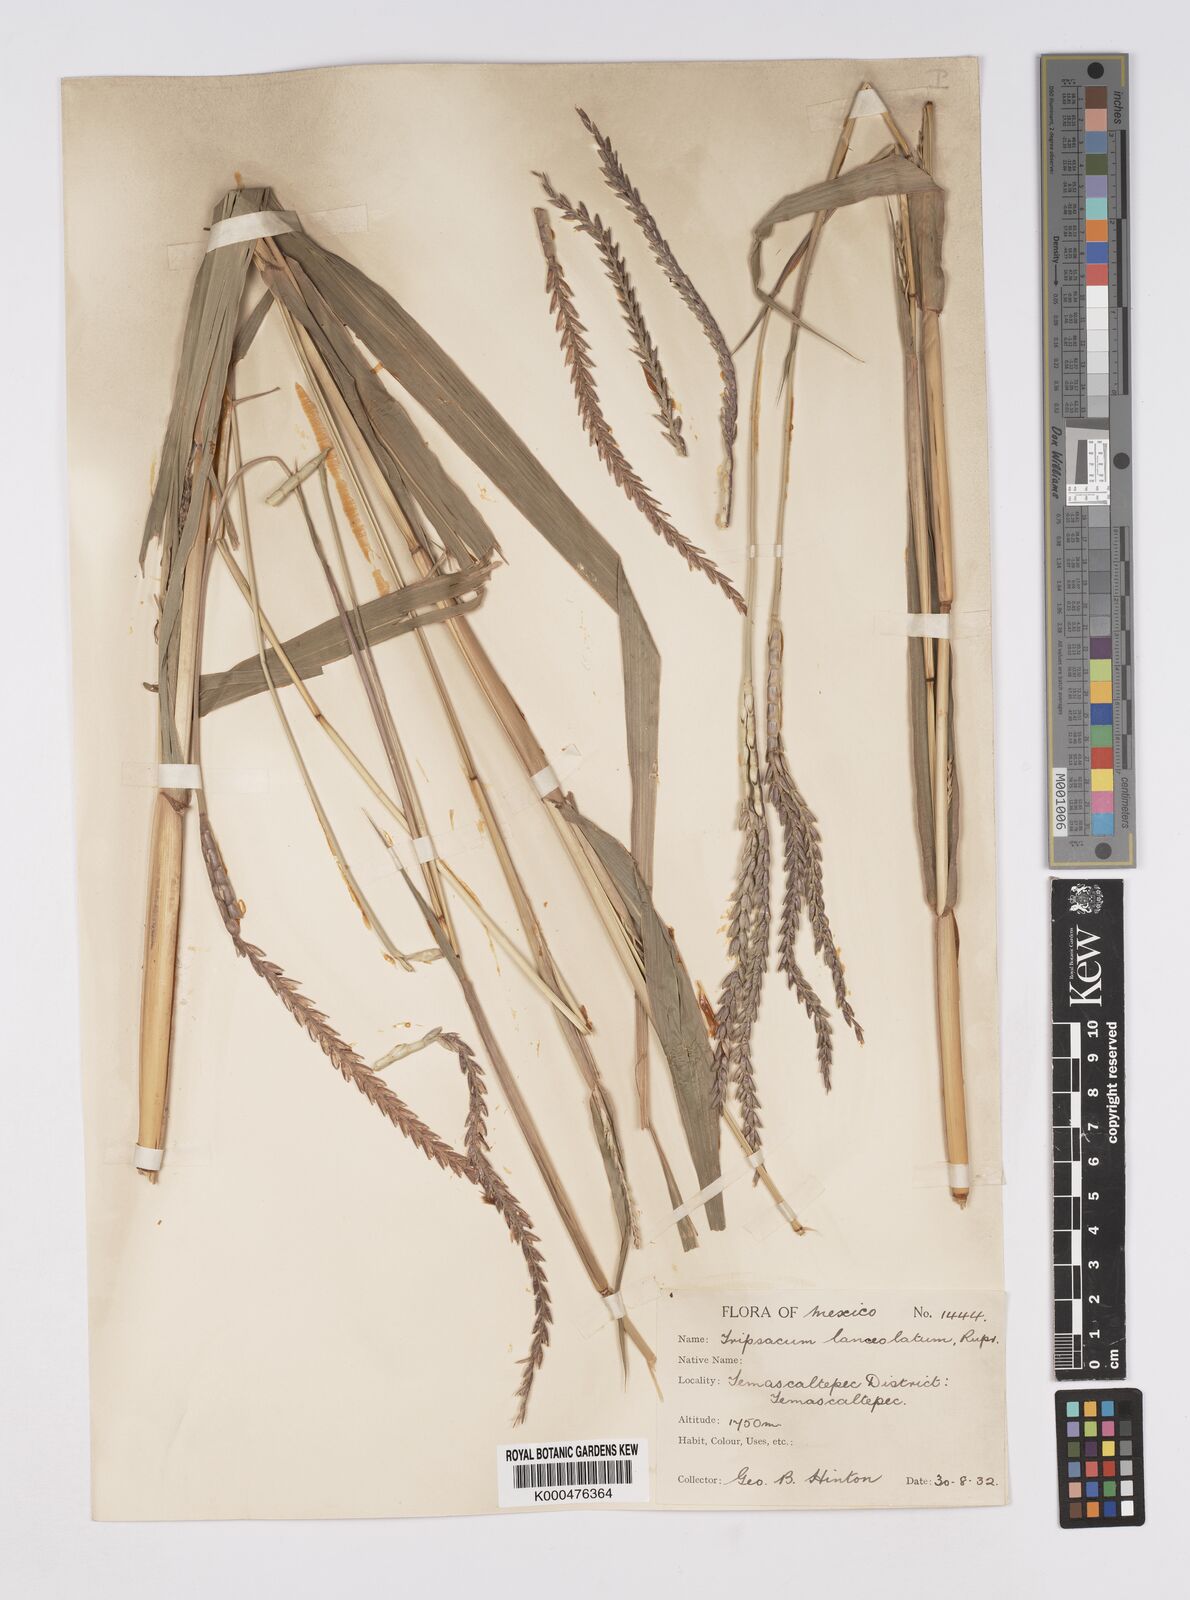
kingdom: Plantae
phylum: Tracheophyta
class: Liliopsida
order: Poales
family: Poaceae
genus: Tripsacum
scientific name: Tripsacum dactyloides
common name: Buffalo-grass
